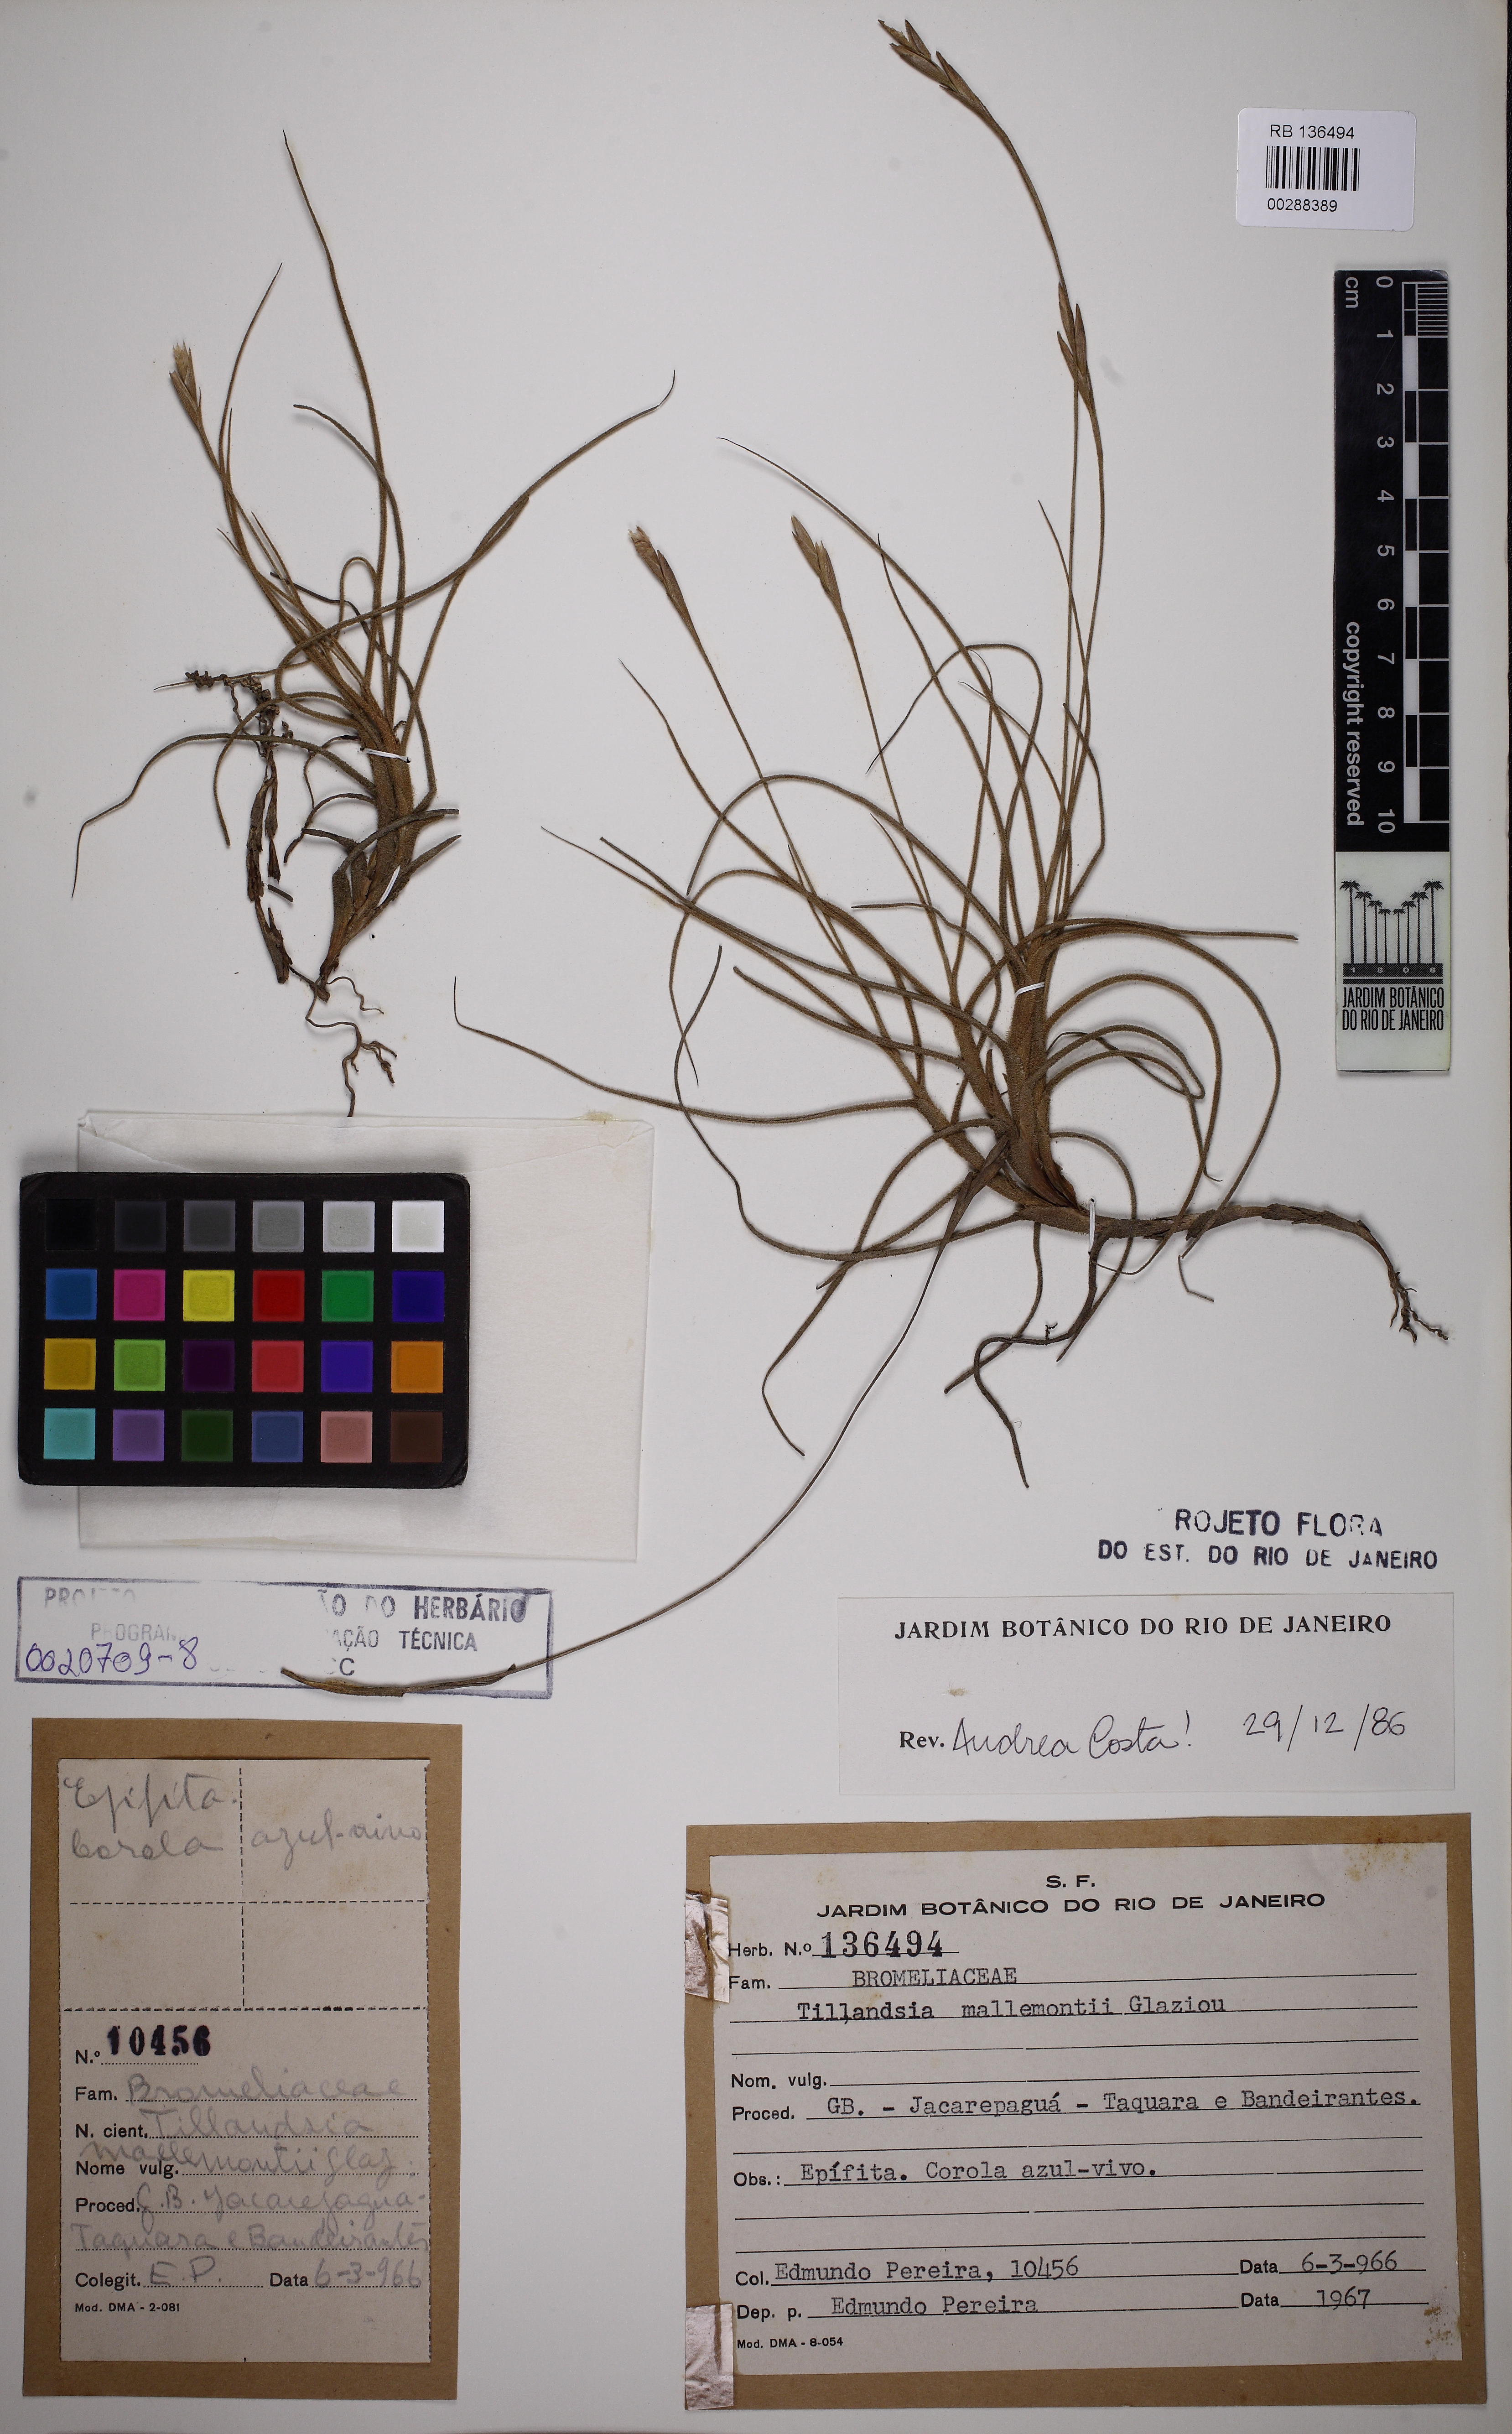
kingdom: Plantae
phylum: Tracheophyta
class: Liliopsida
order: Poales
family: Bromeliaceae
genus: Tillandsia
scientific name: Tillandsia mallemontii
